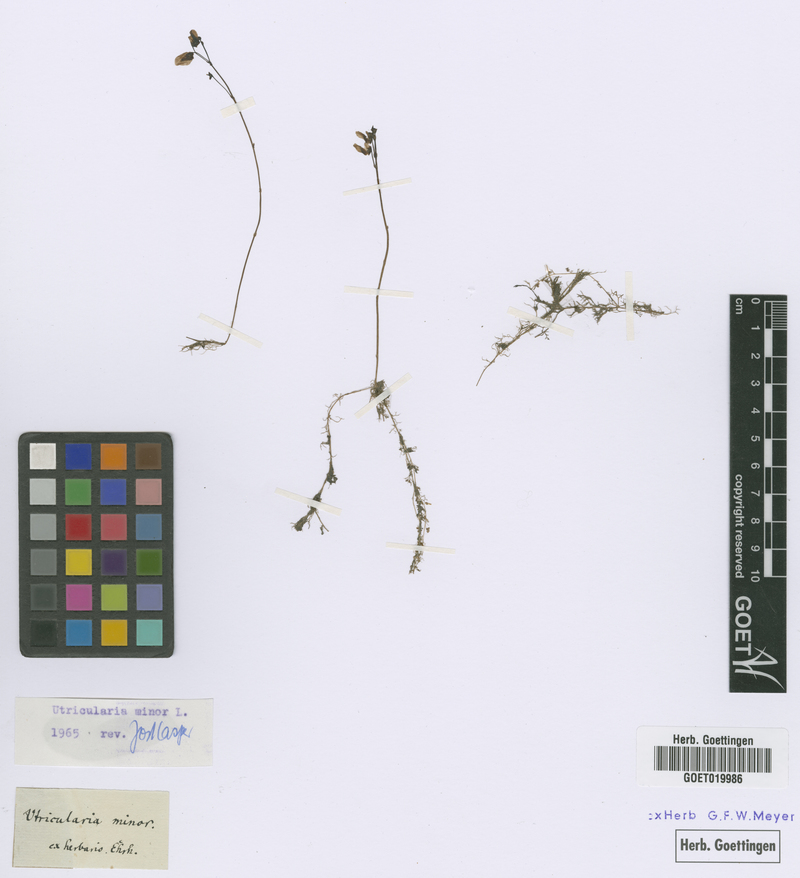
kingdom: Plantae
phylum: Tracheophyta
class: Magnoliopsida
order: Lamiales
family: Lentibulariaceae
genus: Utricularia
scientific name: Utricularia minor
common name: Lesser bladderwort
